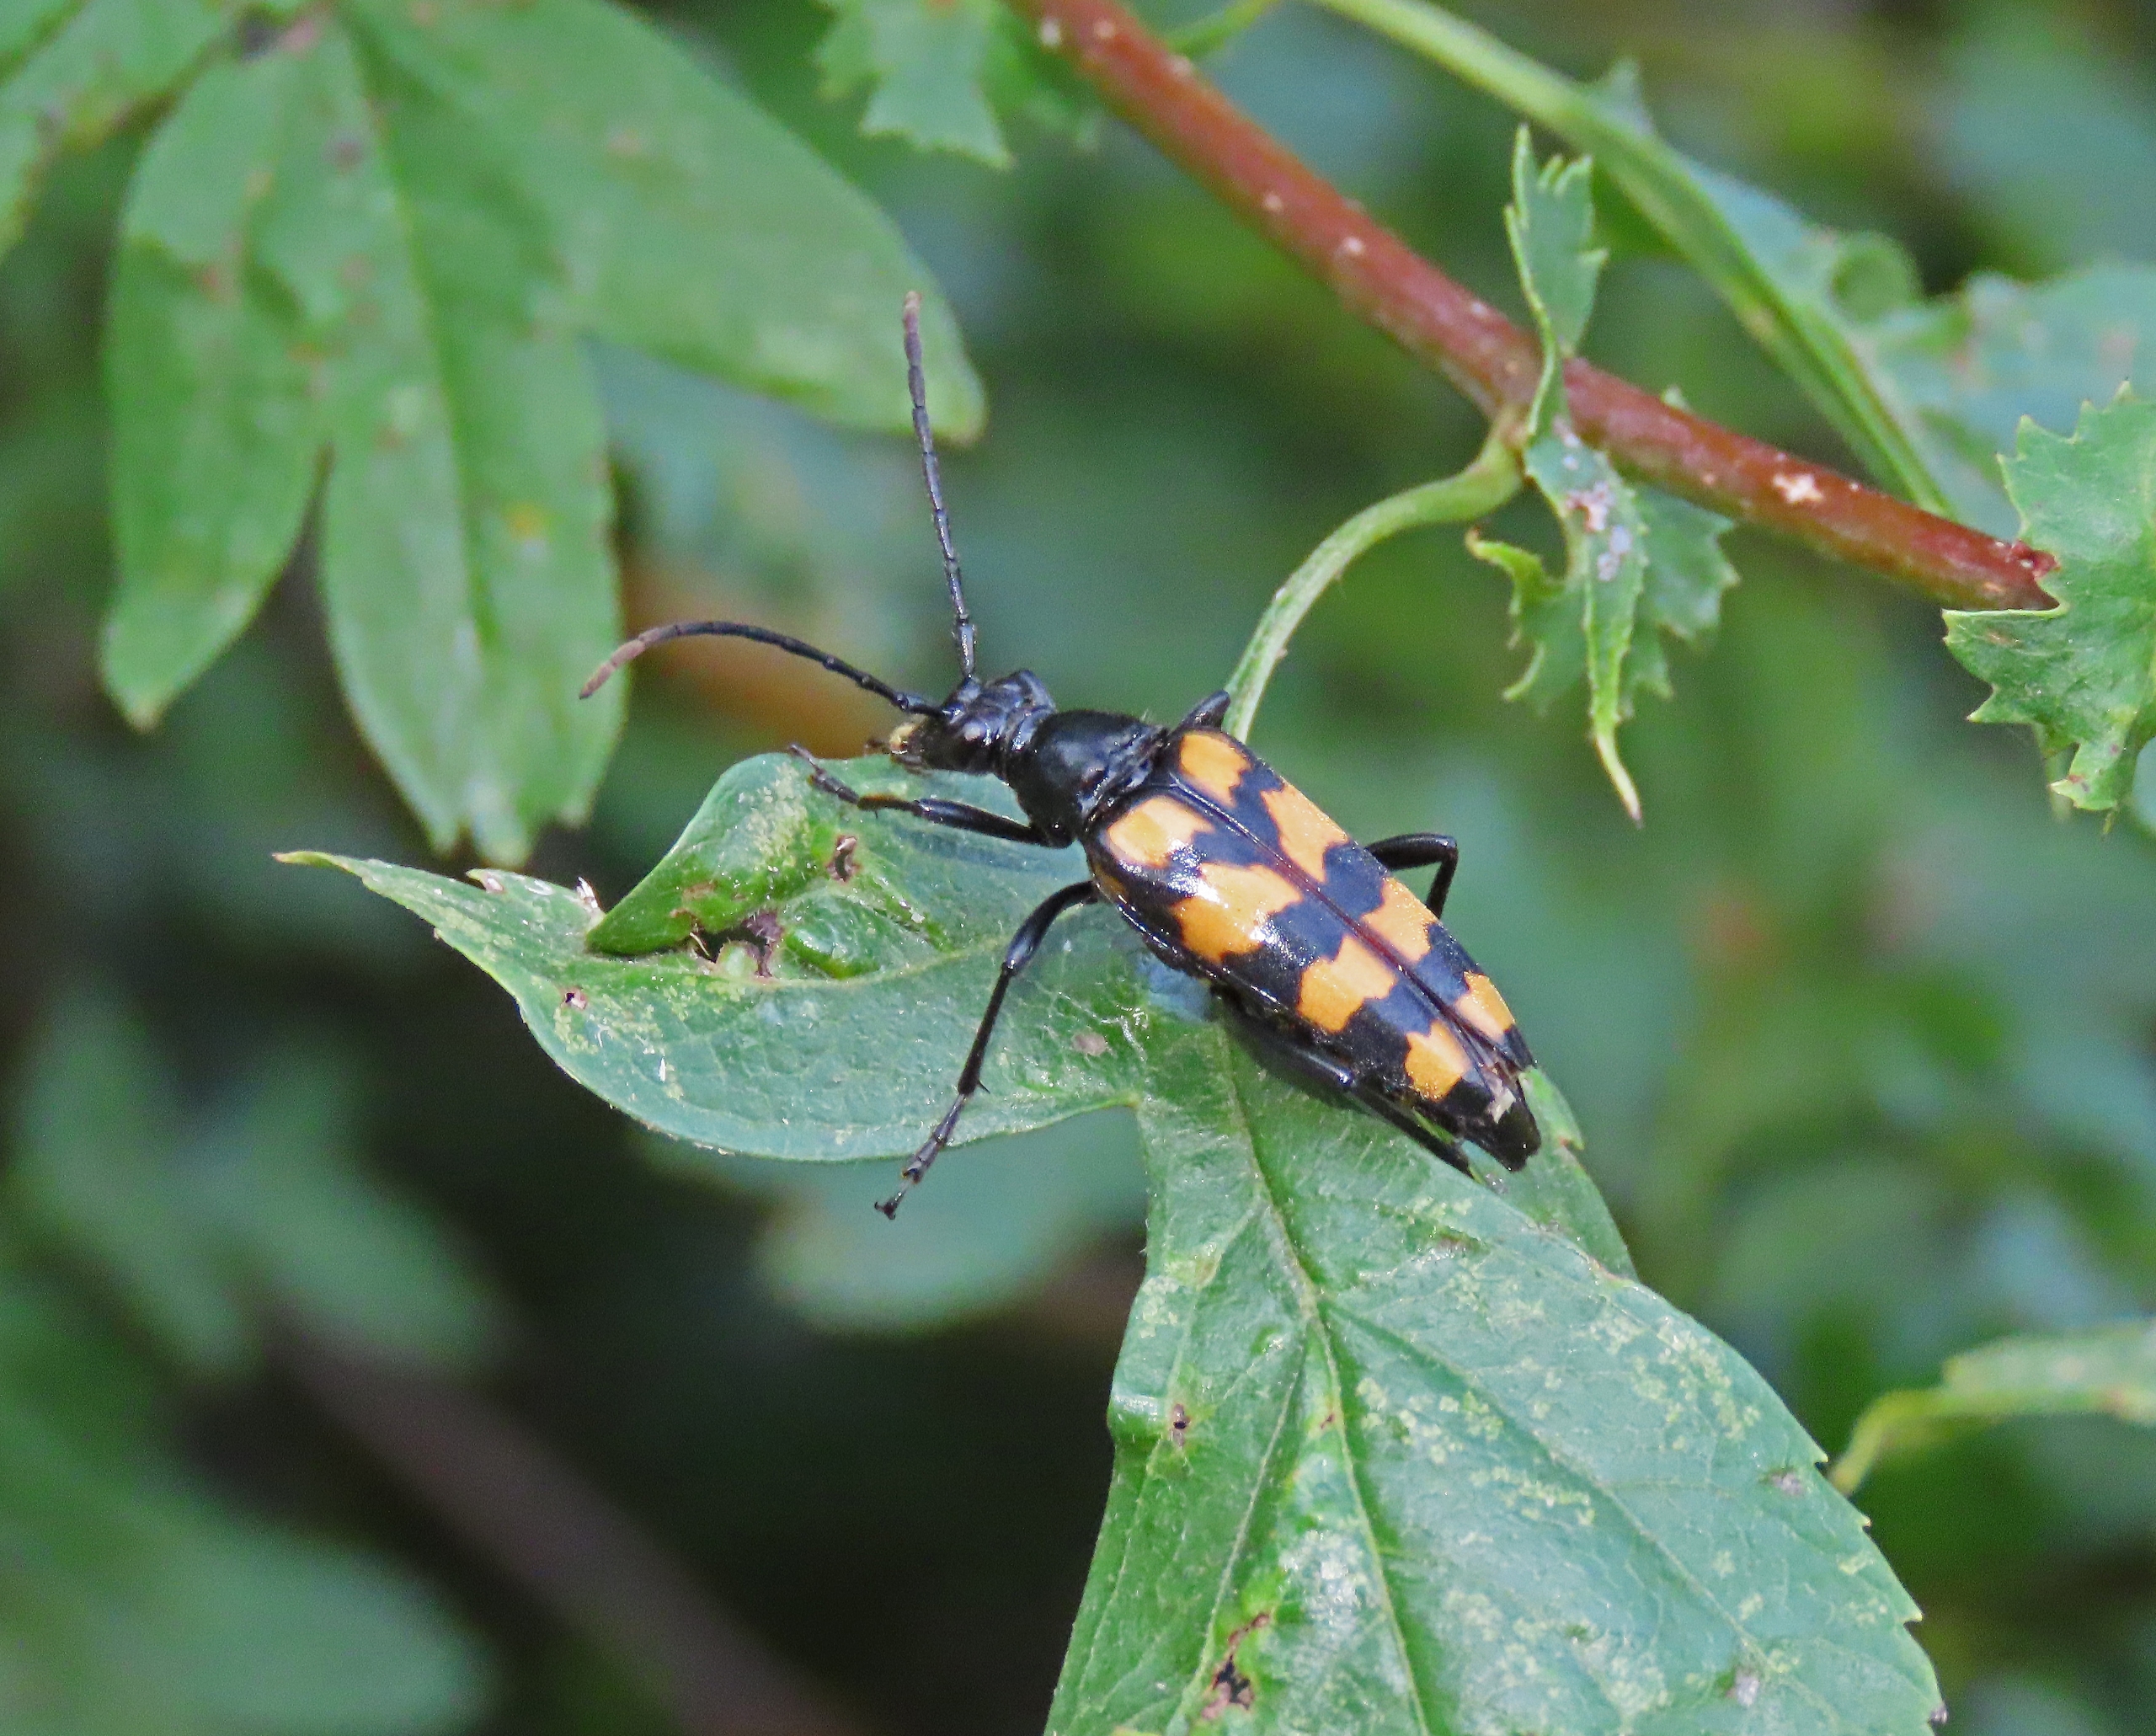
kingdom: Animalia
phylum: Arthropoda
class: Insecta
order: Coleoptera
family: Cerambycidae
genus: Leptura
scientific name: Leptura quadrifasciata
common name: Firebåndet blomsterbuk
